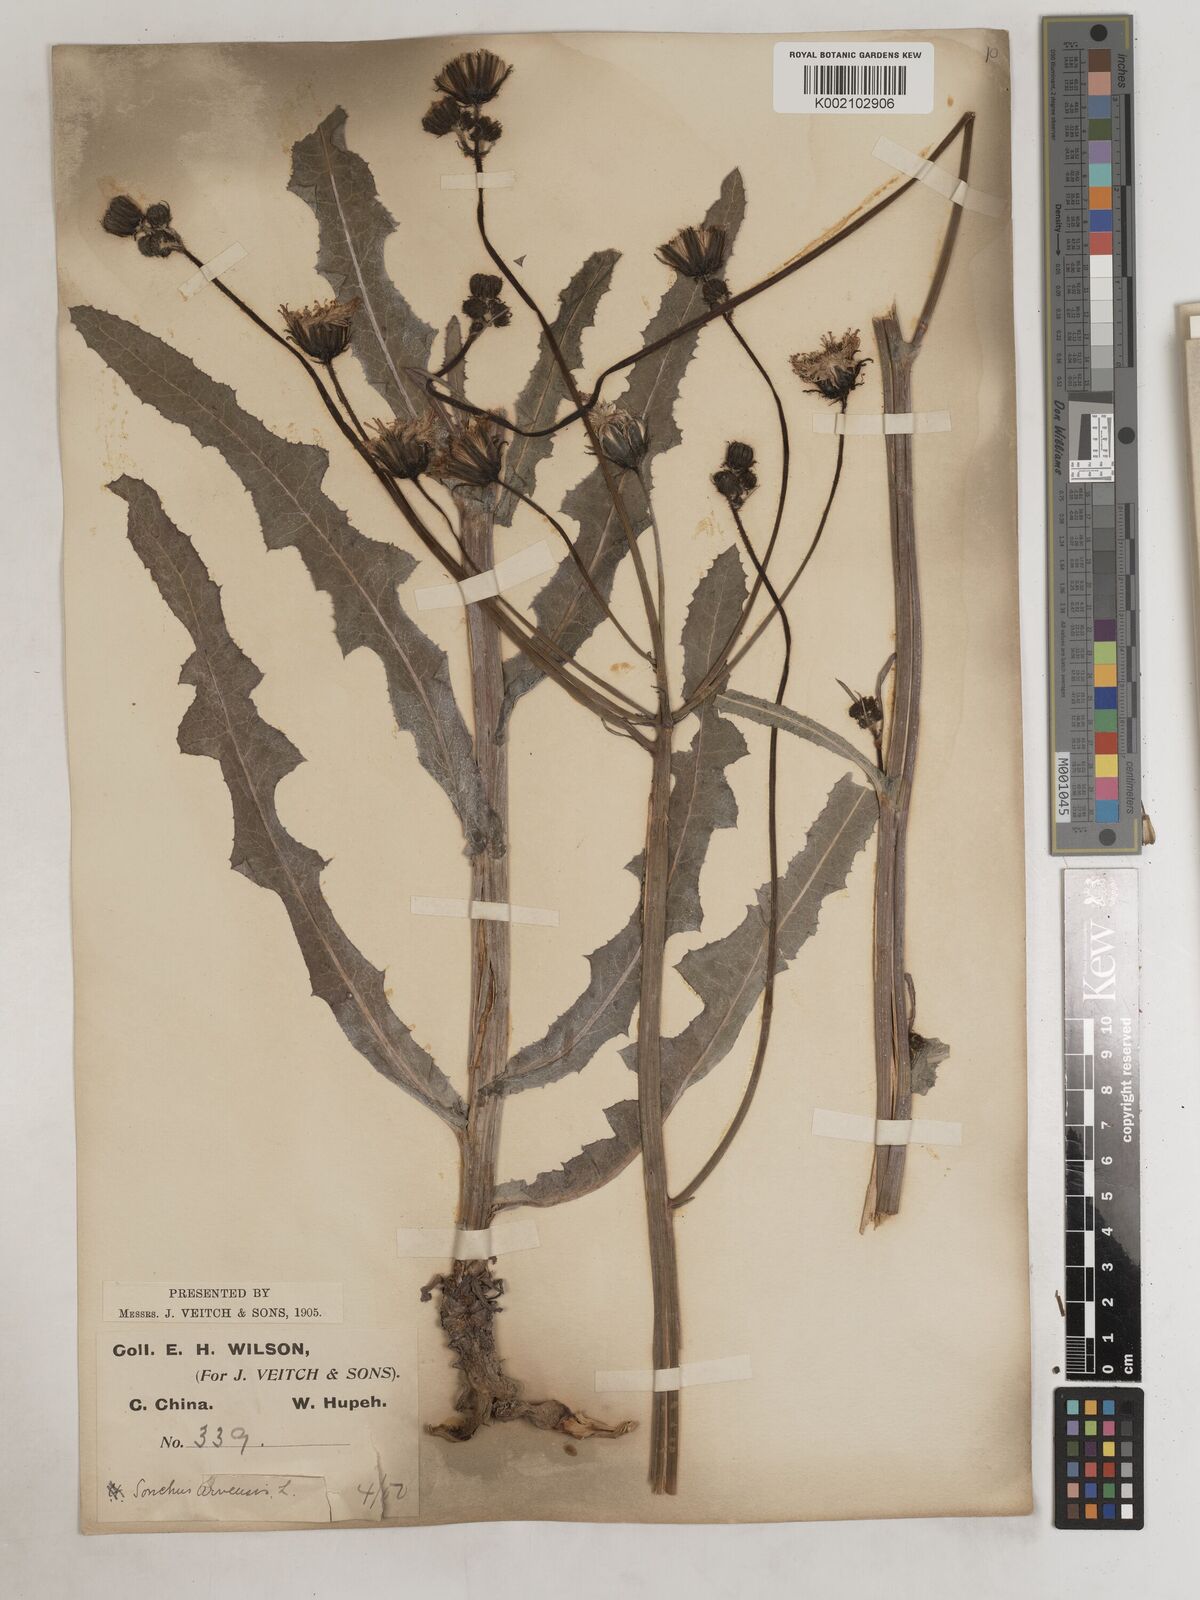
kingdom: Plantae
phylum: Tracheophyta
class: Magnoliopsida
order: Asterales
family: Asteraceae
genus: Sonchus
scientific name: Sonchus wightianus
